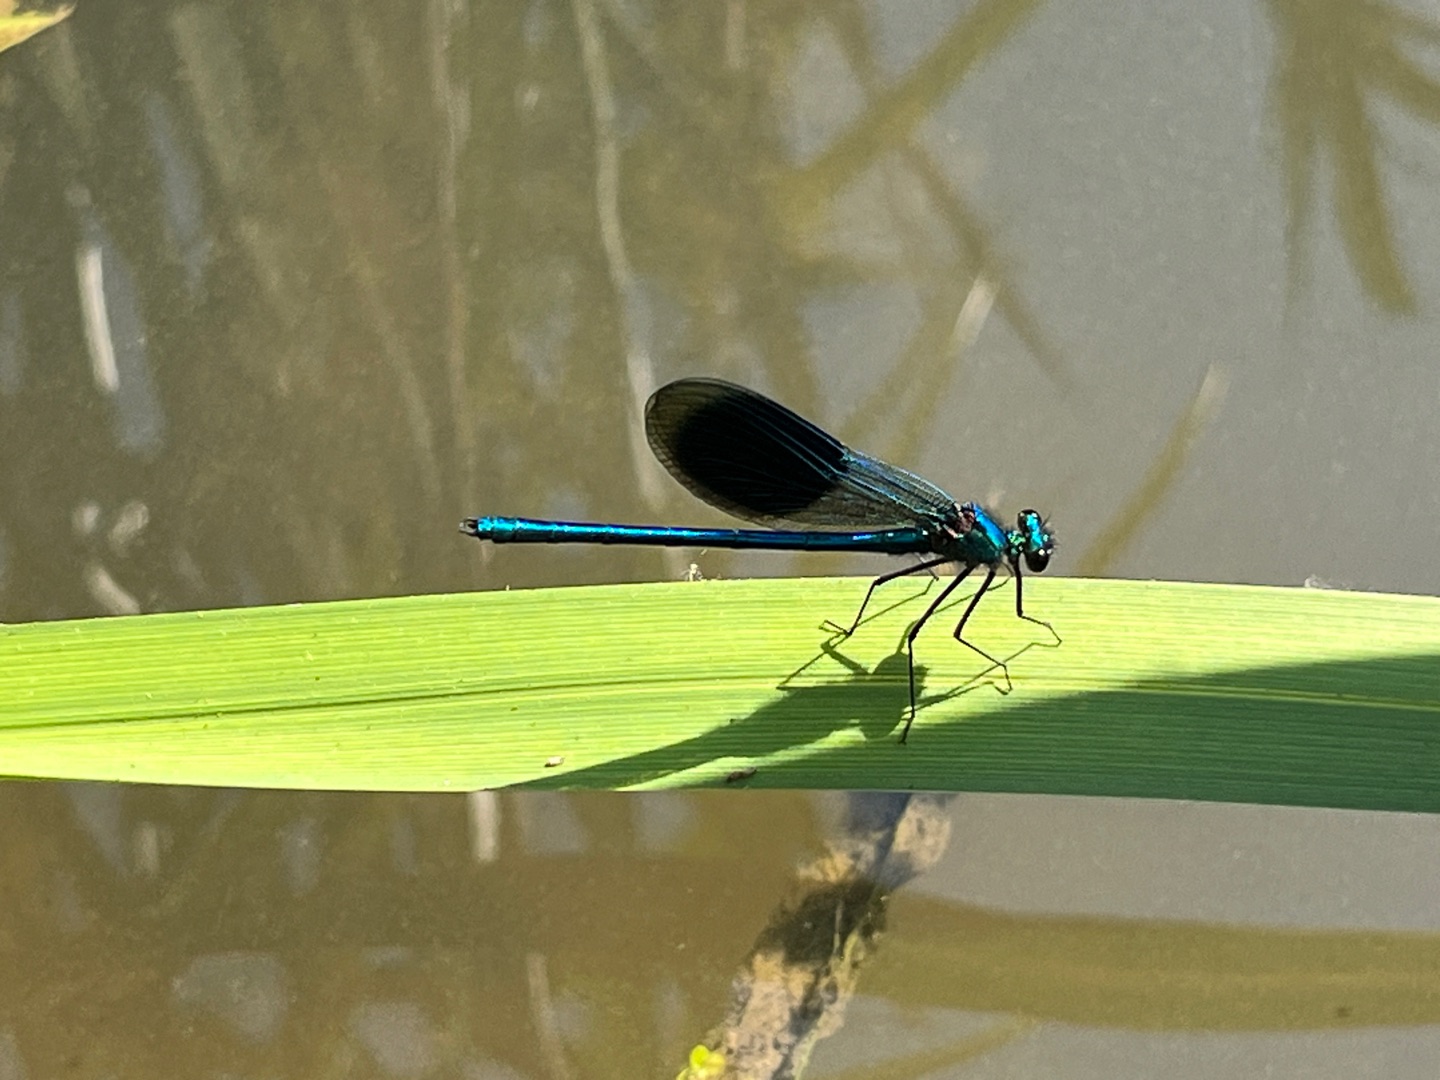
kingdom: Animalia
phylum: Arthropoda
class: Insecta
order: Odonata
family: Calopterygidae
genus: Calopteryx
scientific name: Calopteryx splendens
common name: Blåbåndet pragtvandnymfe
